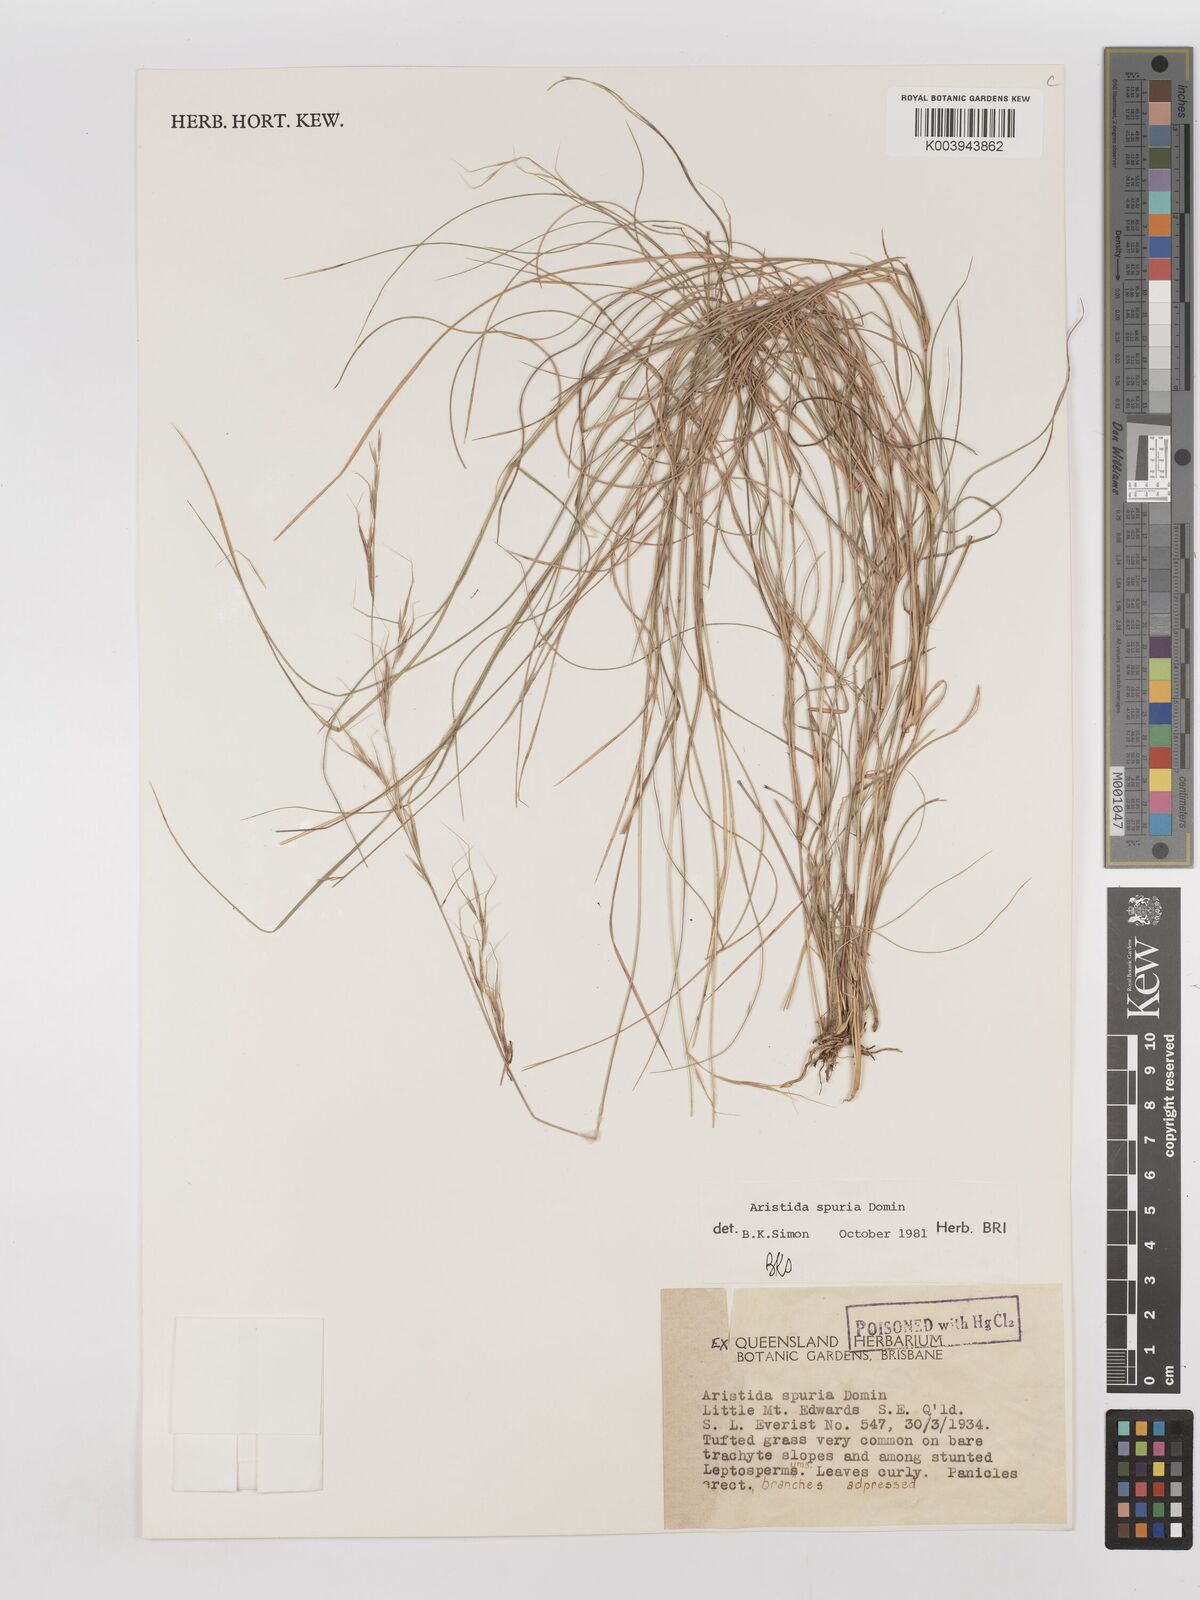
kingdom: Plantae
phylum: Tracheophyta
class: Liliopsida
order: Poales
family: Poaceae
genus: Aristida
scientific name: Aristida spuria
